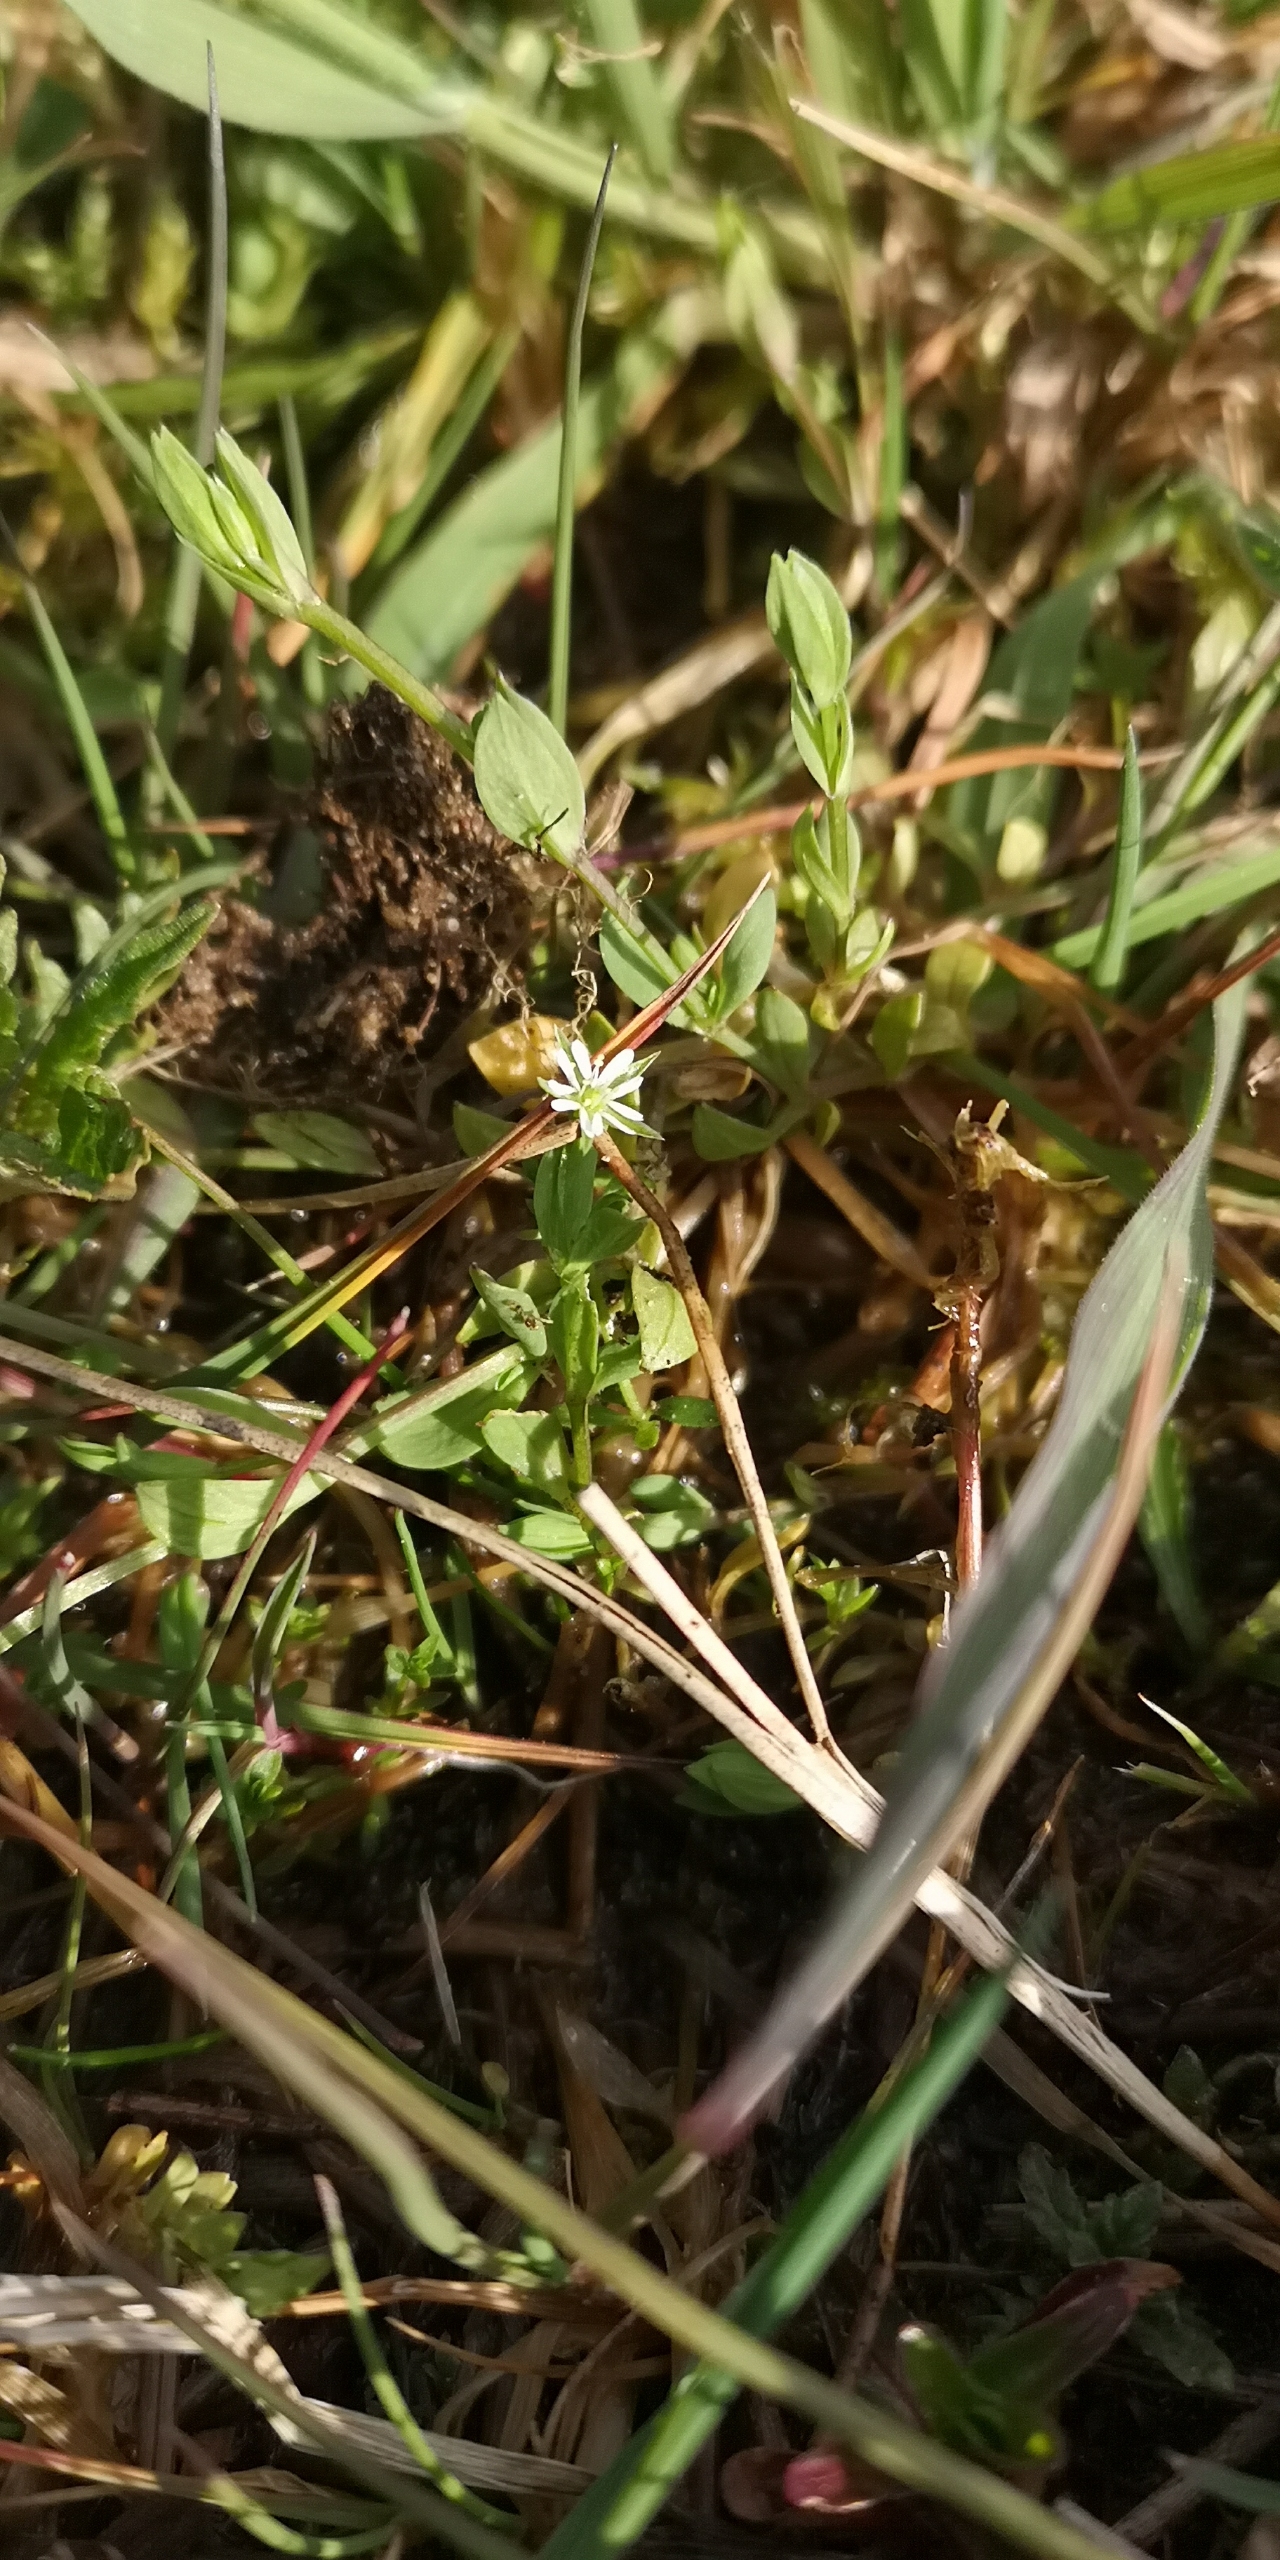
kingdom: Plantae
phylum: Tracheophyta
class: Magnoliopsida
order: Caryophyllales
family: Caryophyllaceae
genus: Stellaria
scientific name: Stellaria alsine
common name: Sump-fladstjerne
